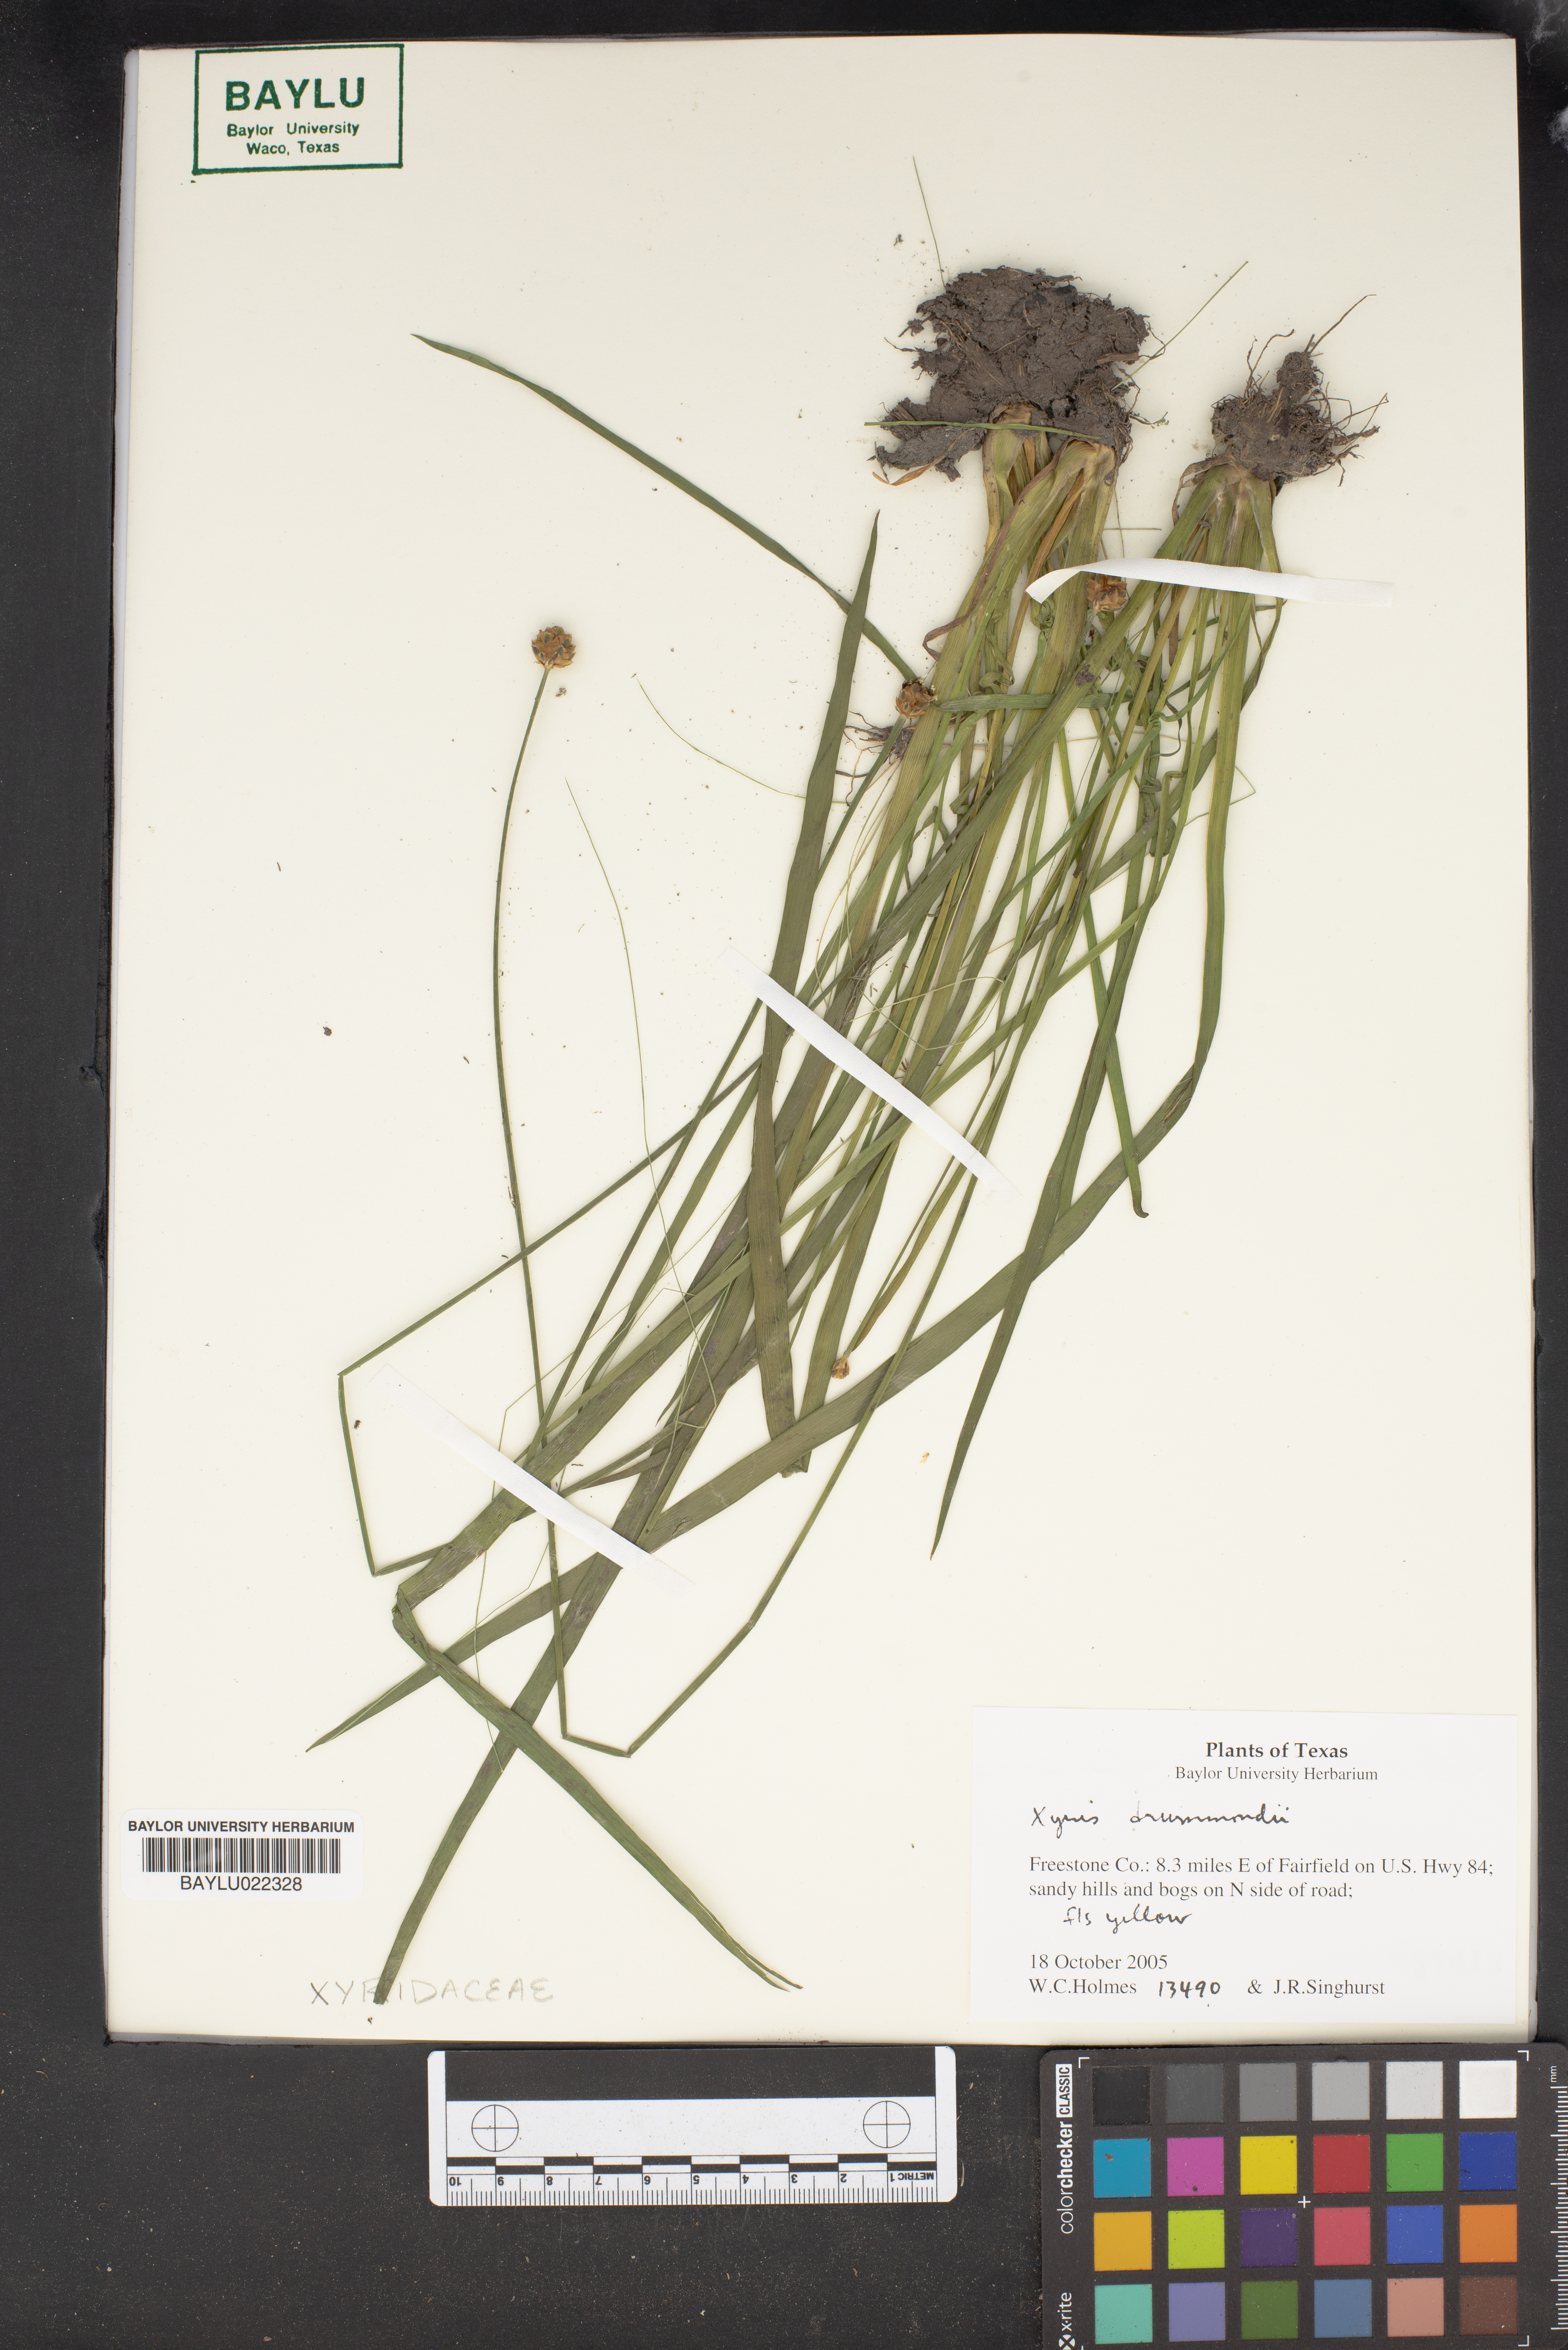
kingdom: Plantae
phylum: Tracheophyta
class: Liliopsida
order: Poales
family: Xyridaceae
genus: Xyris
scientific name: Xyris drummondii
